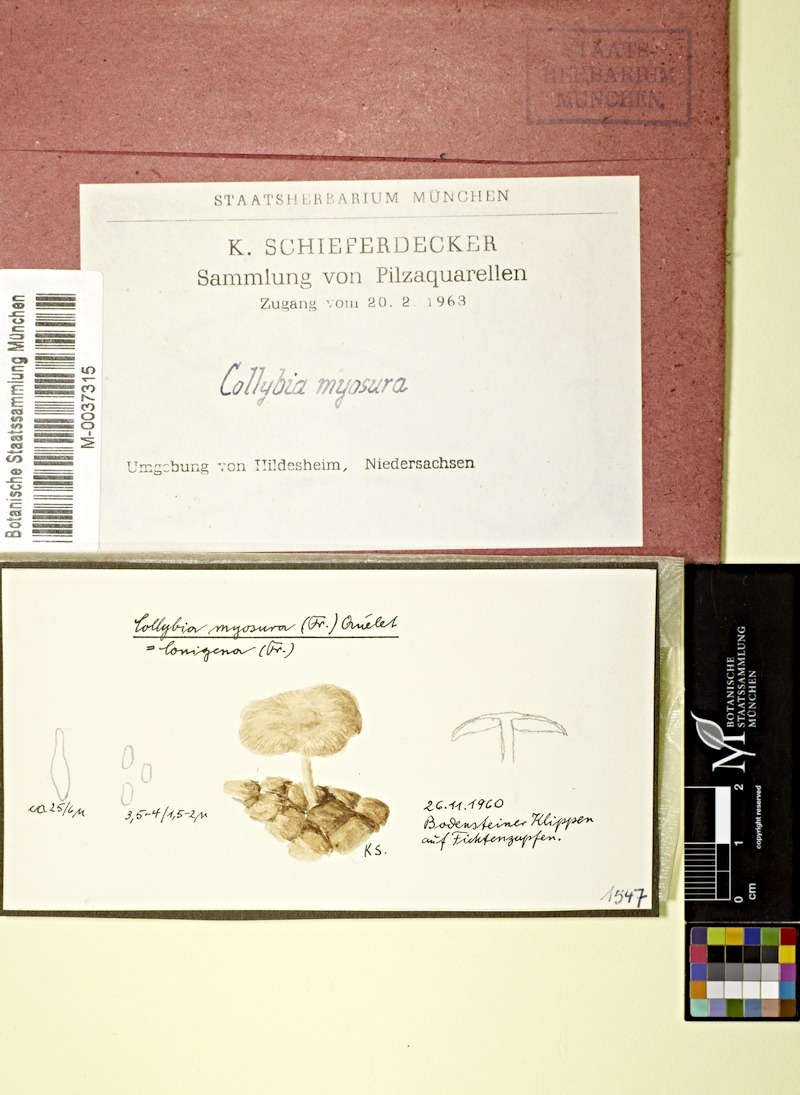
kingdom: Fungi
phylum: Basidiomycota
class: Agaricomycetes
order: Agaricales
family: Marasmiaceae
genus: Baeospora
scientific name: Baeospora myosura
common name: Conifercone cap
